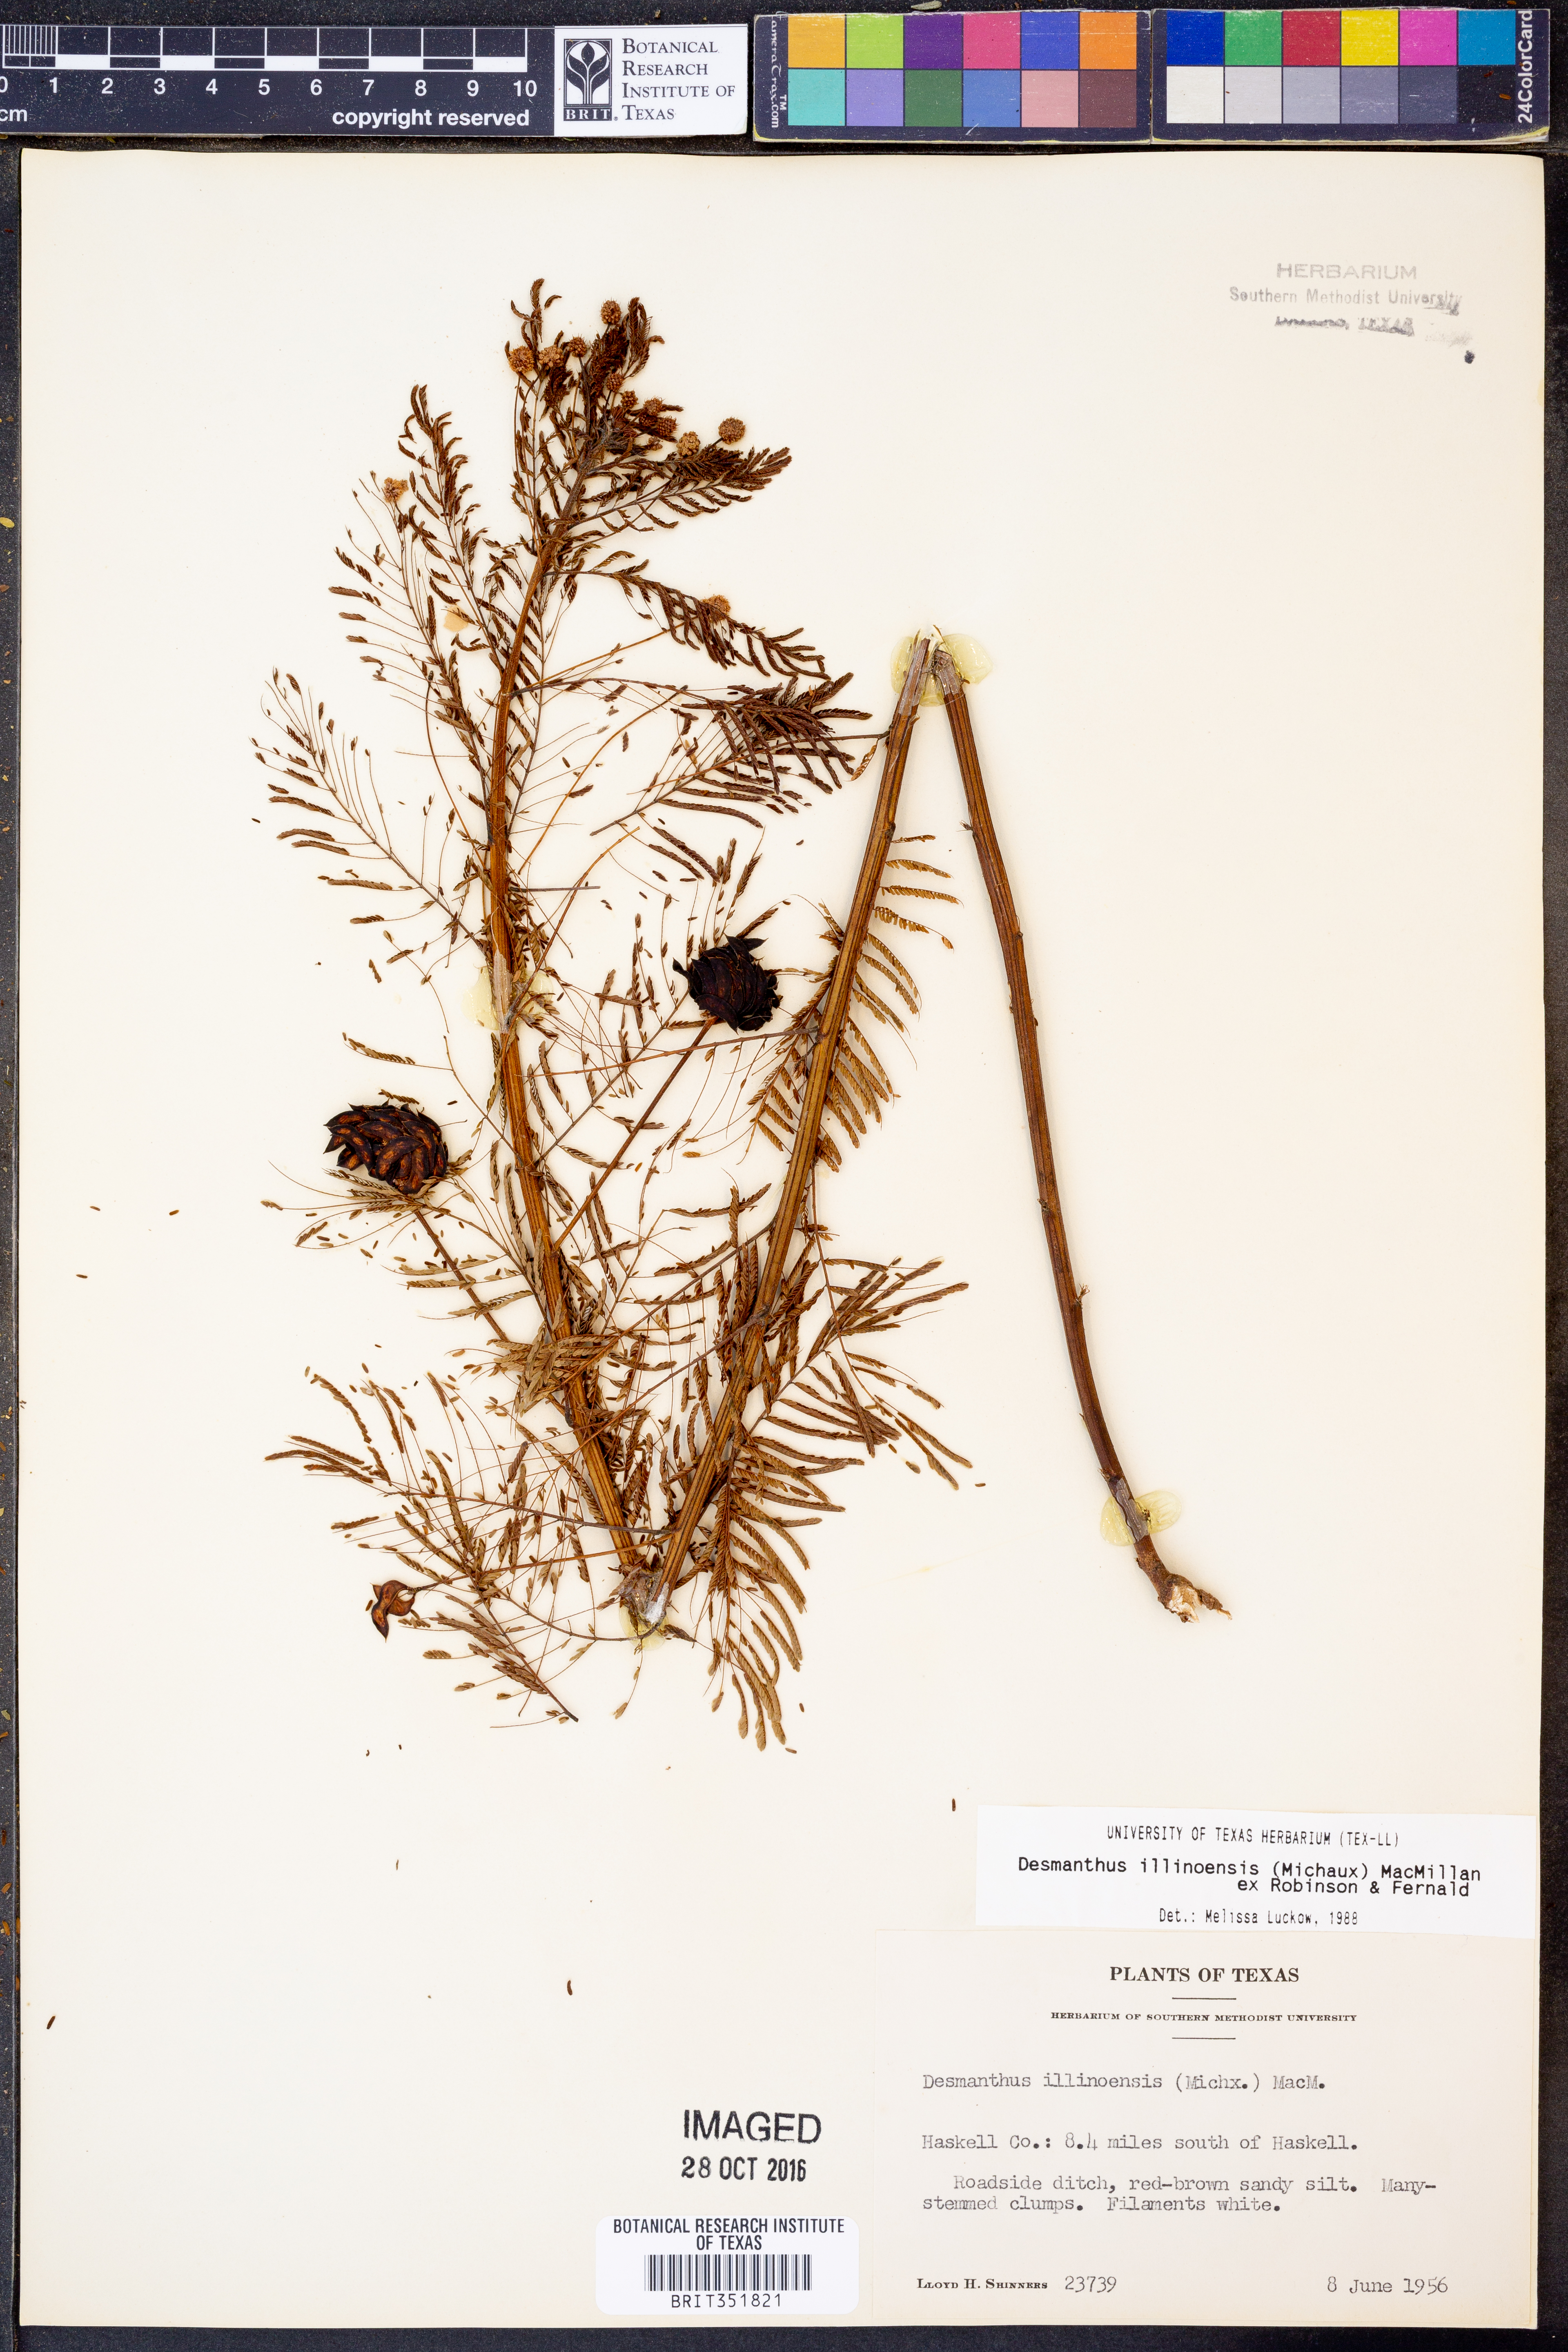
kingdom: Plantae
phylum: Tracheophyta
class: Magnoliopsida
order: Fabales
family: Fabaceae
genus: Desmanthus
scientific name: Desmanthus illinoensis
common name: Illinois bundle-flower
